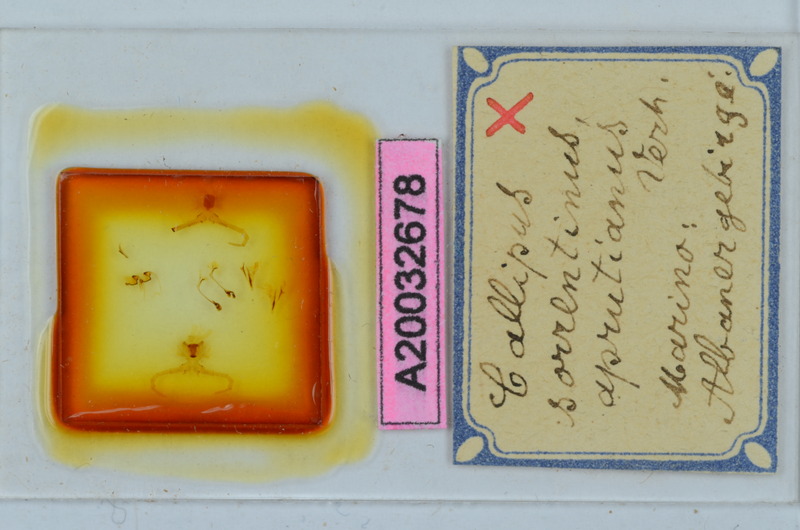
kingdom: Animalia
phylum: Arthropoda
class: Diplopoda
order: Callipodida
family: Callipodidae
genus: Callipus
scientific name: Callipus foetidissimus
